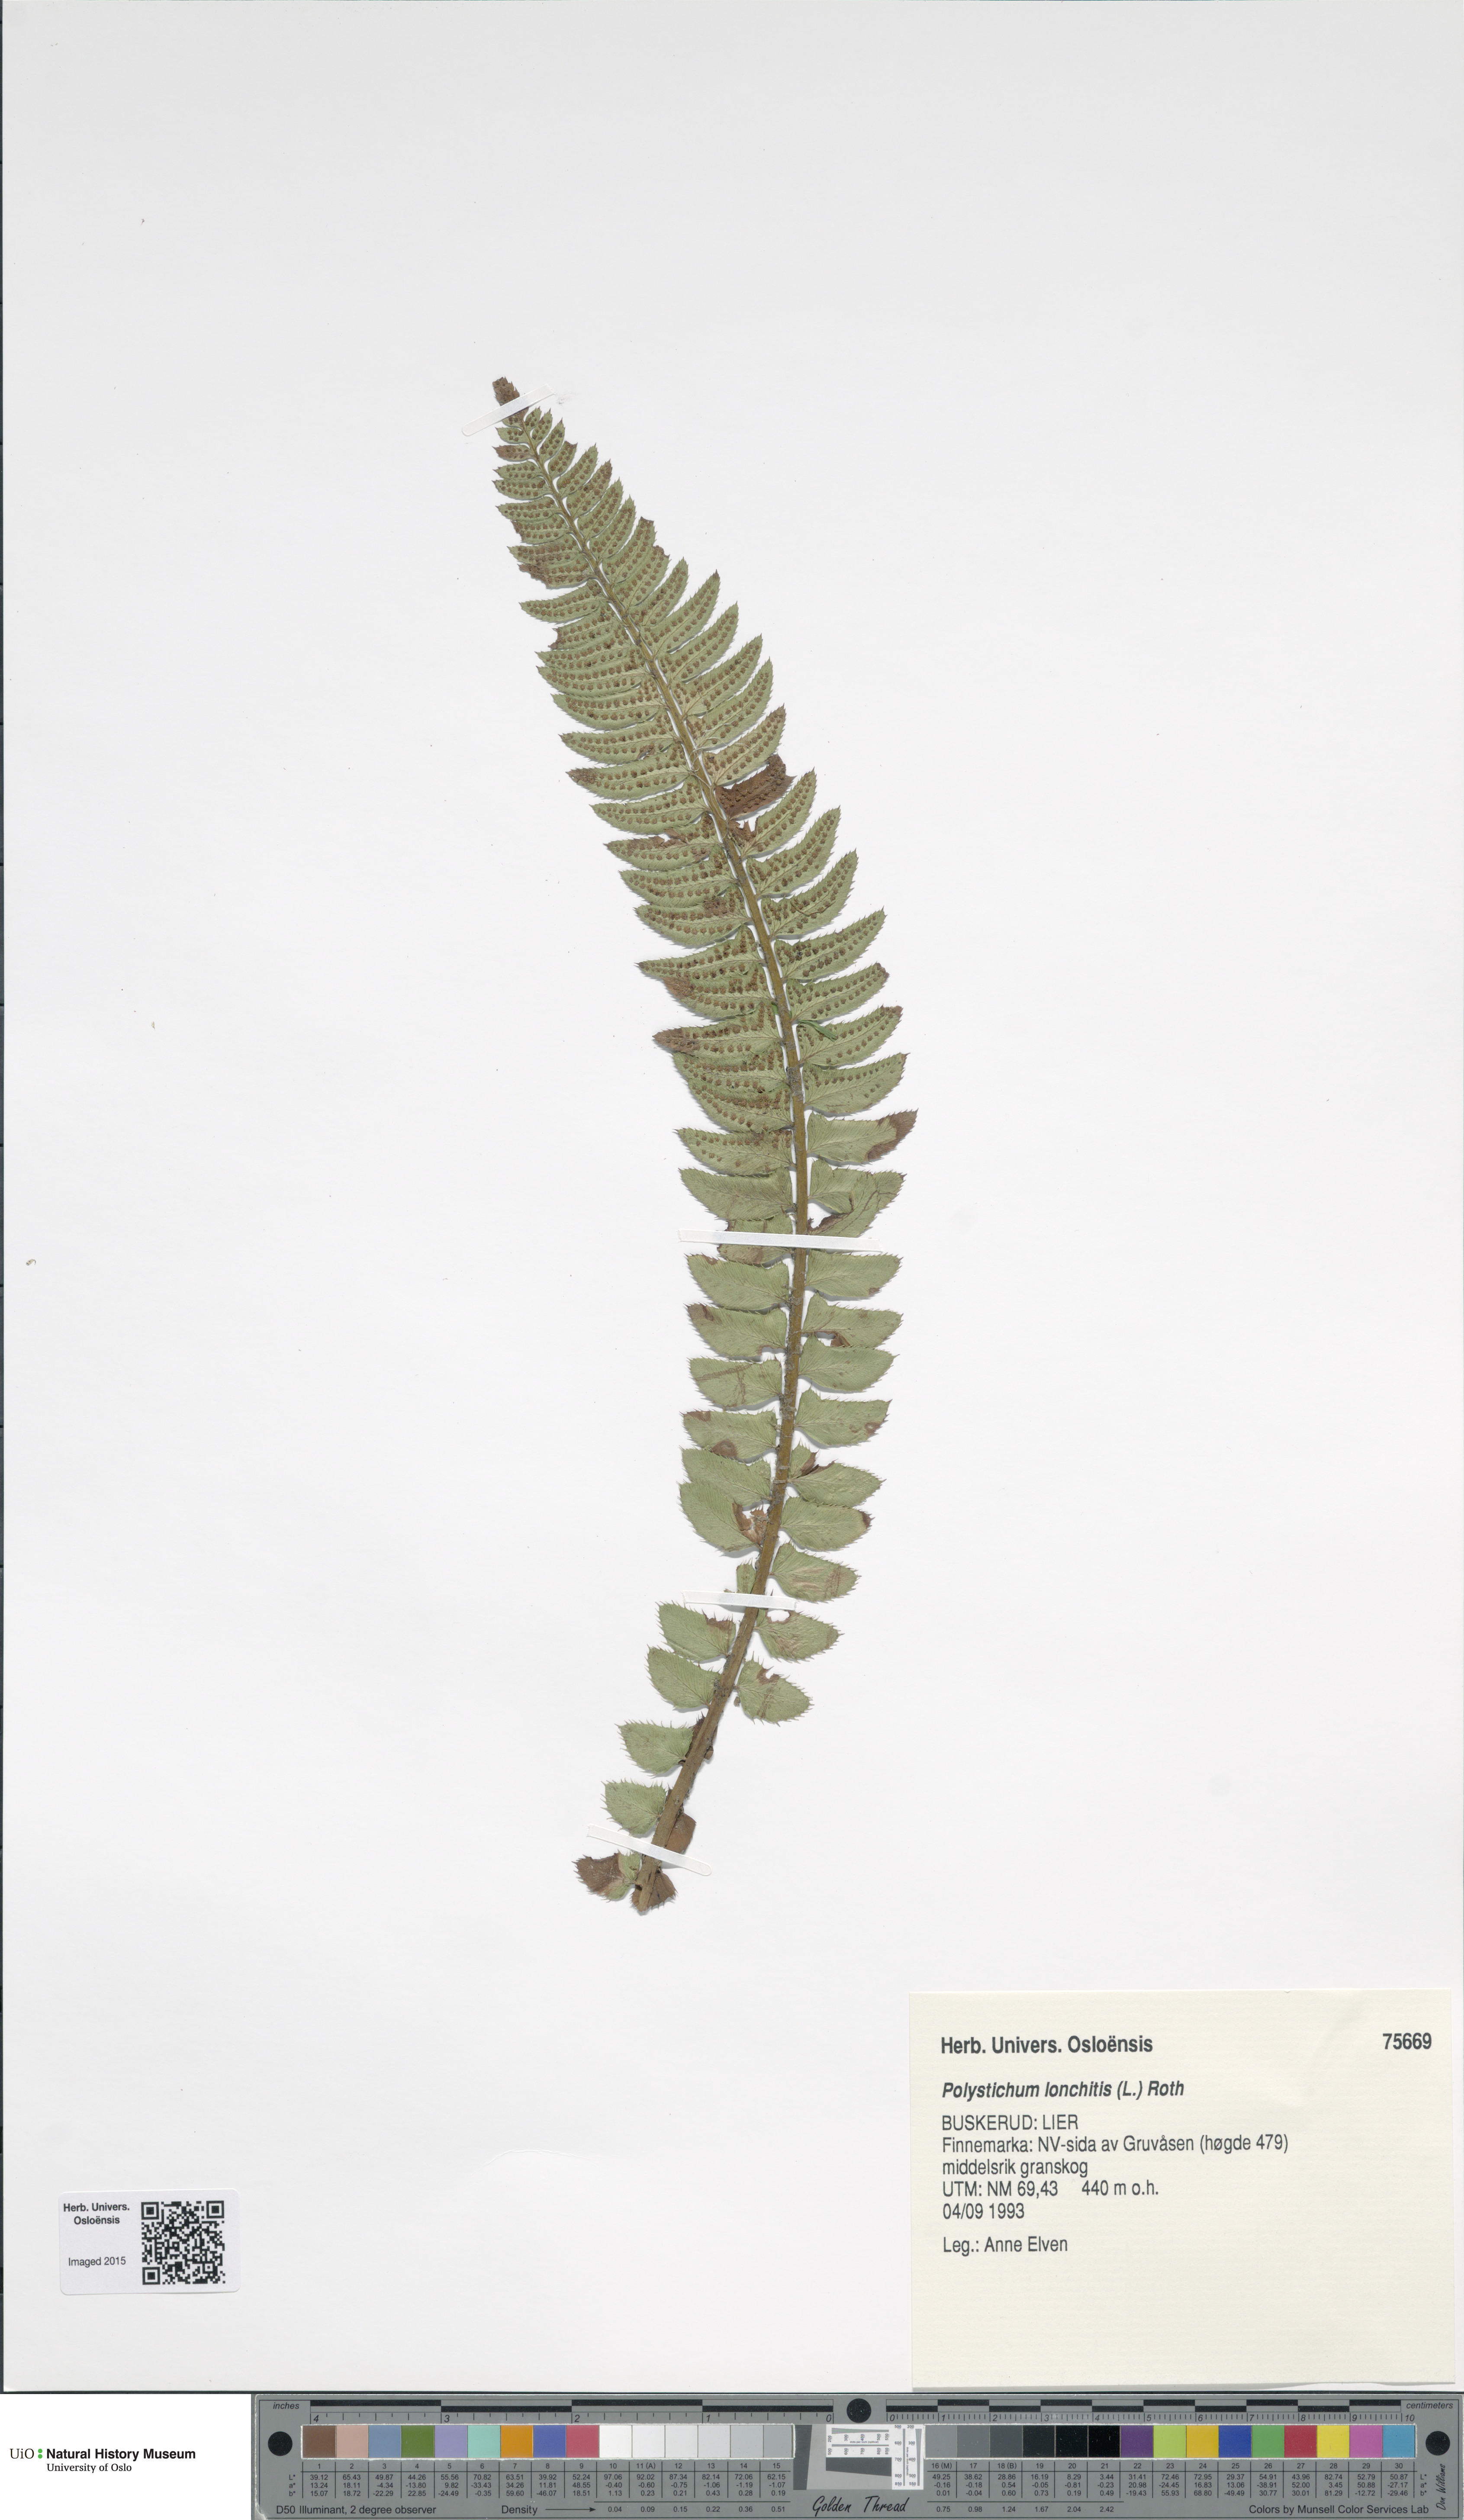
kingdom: Plantae
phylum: Tracheophyta
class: Polypodiopsida
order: Polypodiales
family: Dryopteridaceae
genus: Polystichum
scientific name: Polystichum lonchitis
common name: Holly fern
